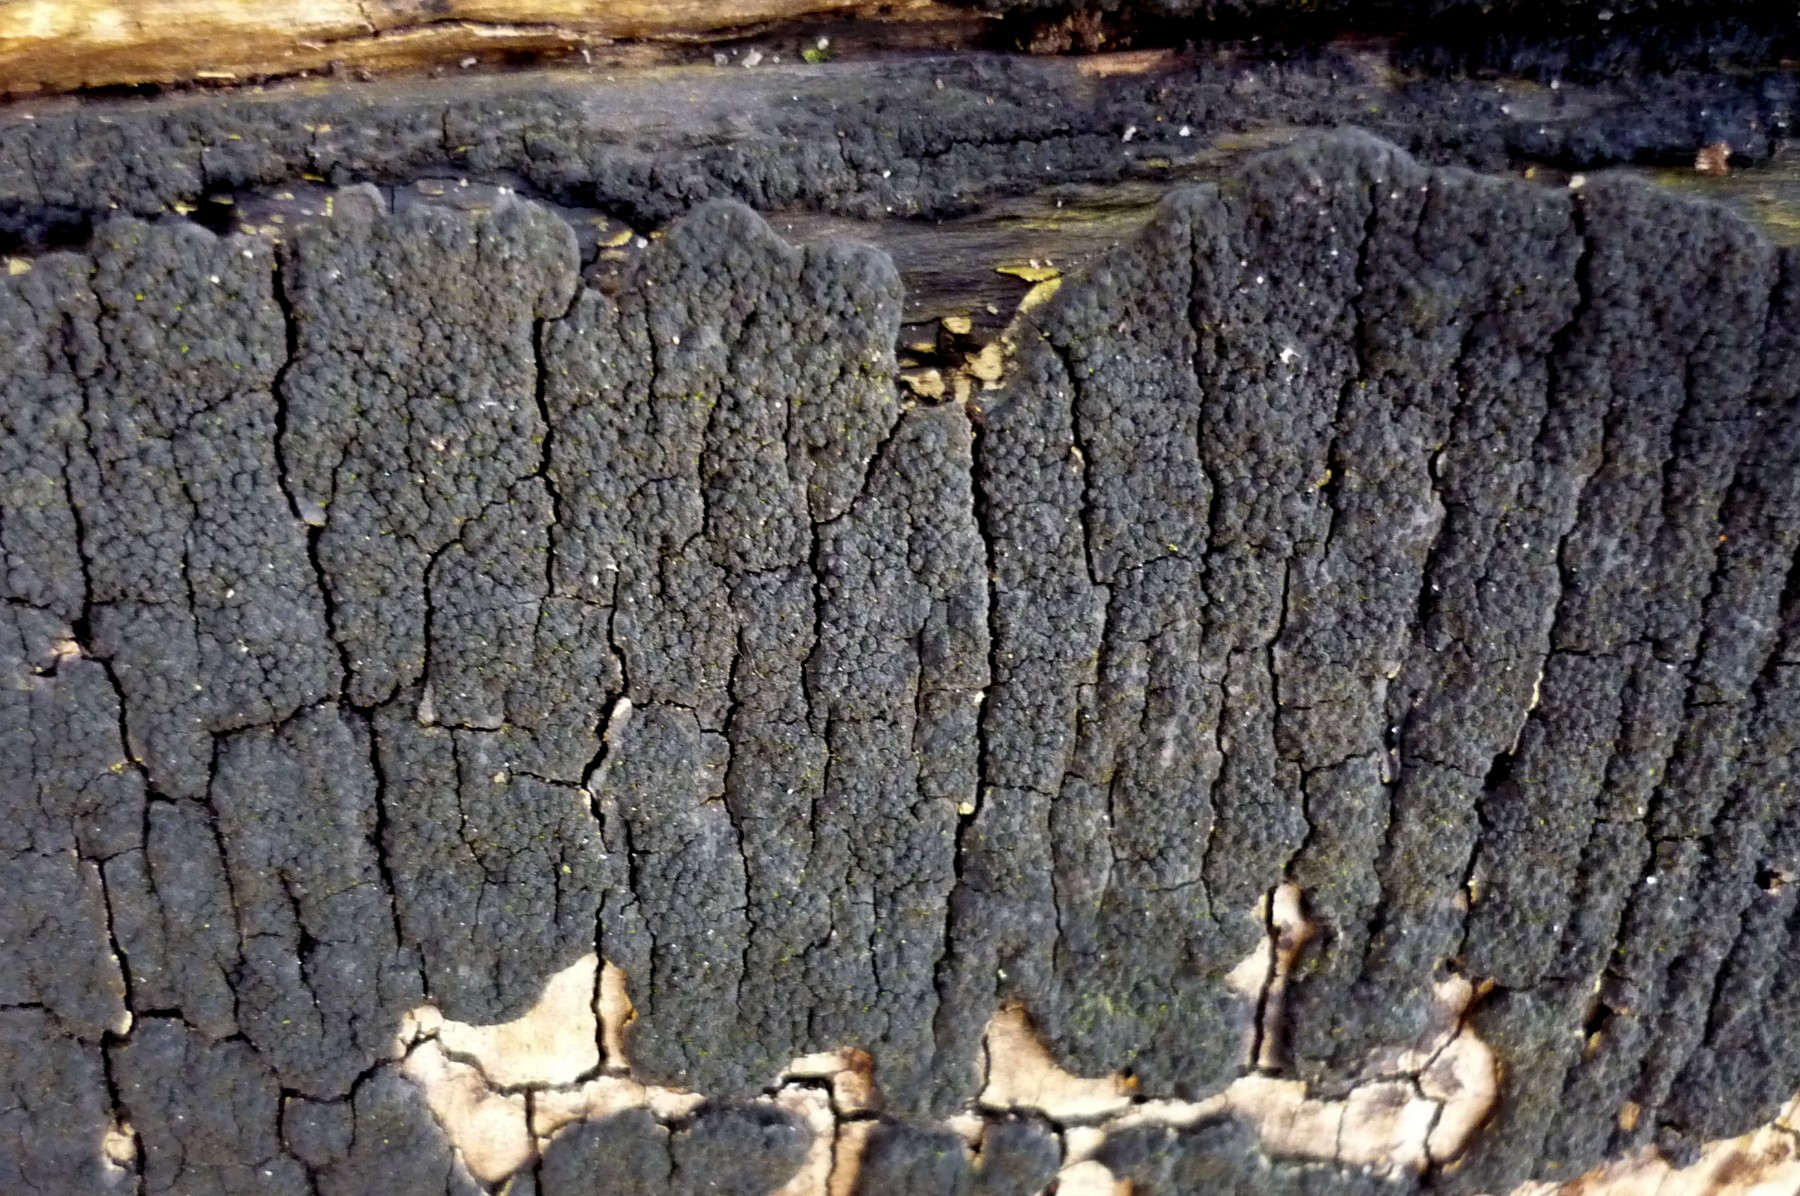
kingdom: Fungi
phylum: Ascomycota
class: Sordariomycetes
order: Xylariales
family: Diatrypaceae
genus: Eutypa
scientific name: Eutypa spinosa
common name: grov kulskorpe
